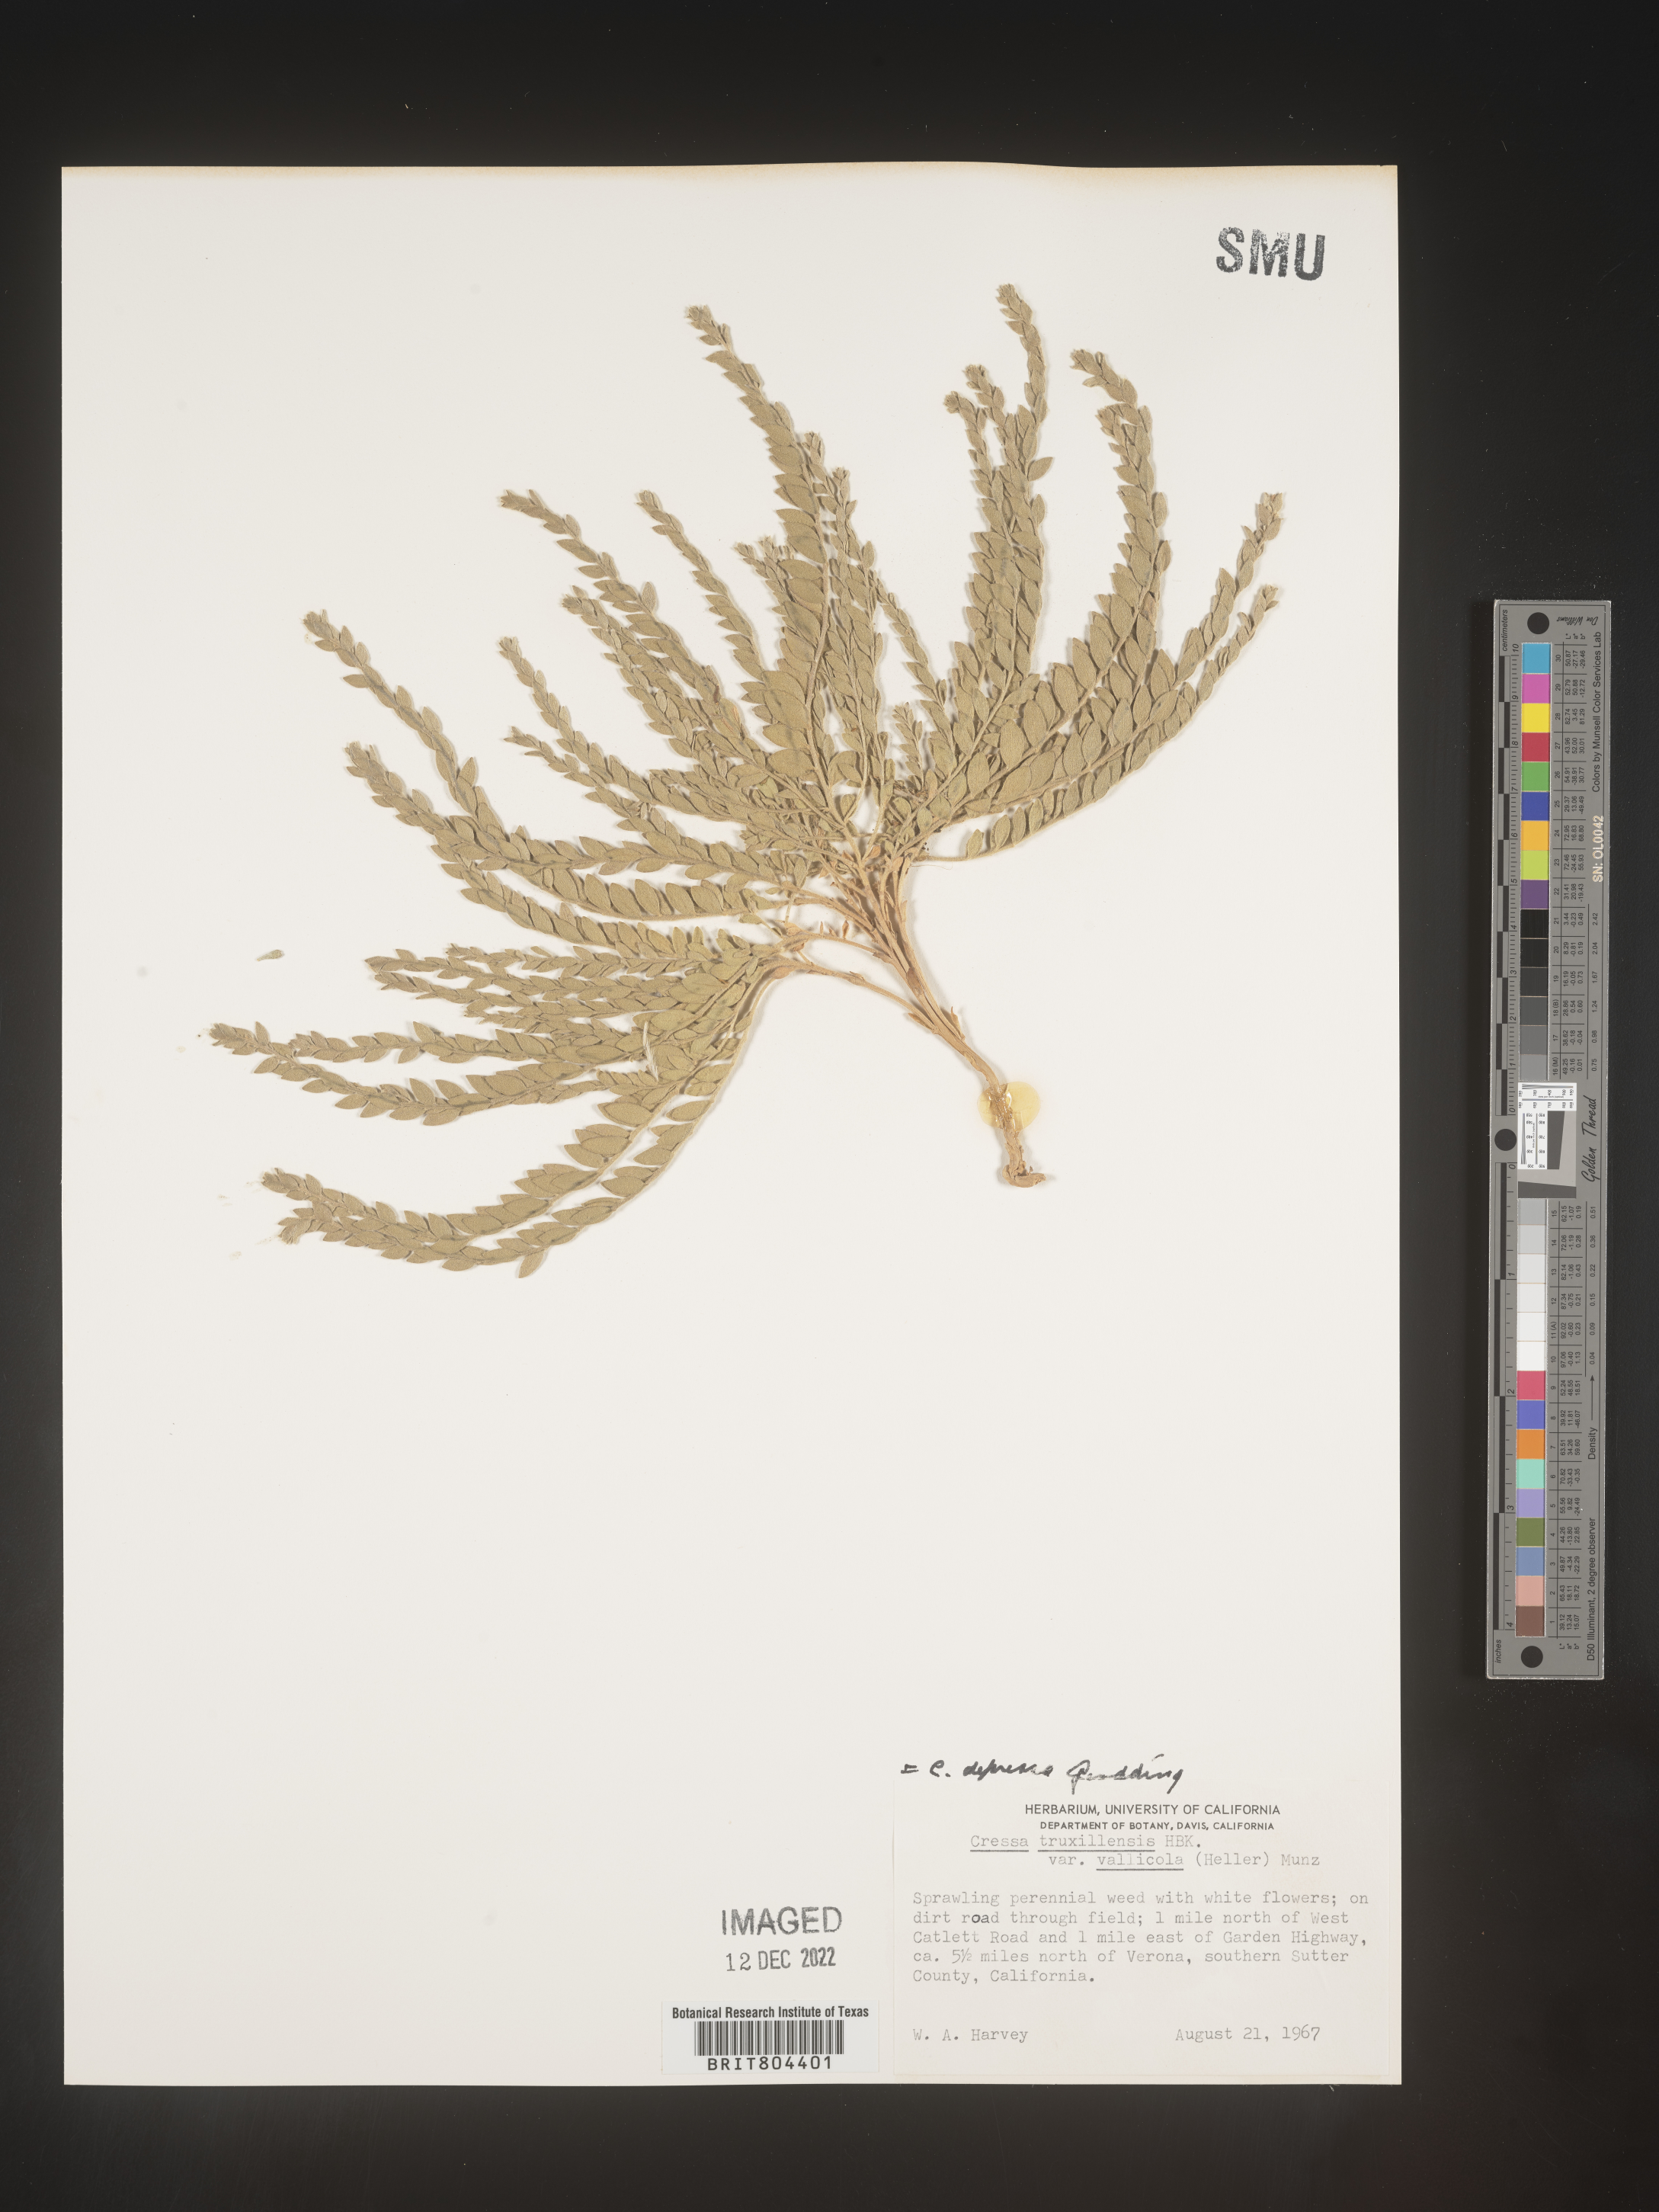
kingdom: Plantae
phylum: Tracheophyta
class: Magnoliopsida
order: Solanales
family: Convolvulaceae
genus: Cressa
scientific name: Cressa
